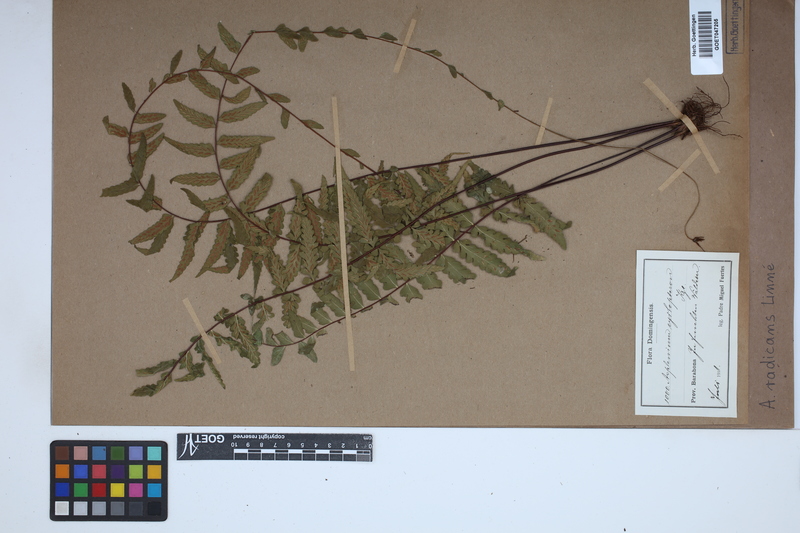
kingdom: Plantae
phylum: Tracheophyta
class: Polypodiopsida
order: Polypodiales
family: Aspleniaceae
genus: Asplenium
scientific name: Asplenium radicans
